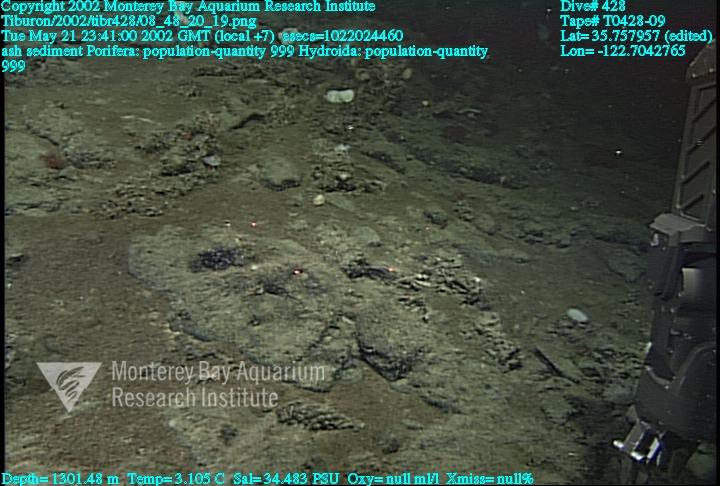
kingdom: Animalia
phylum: Porifera
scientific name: Porifera
